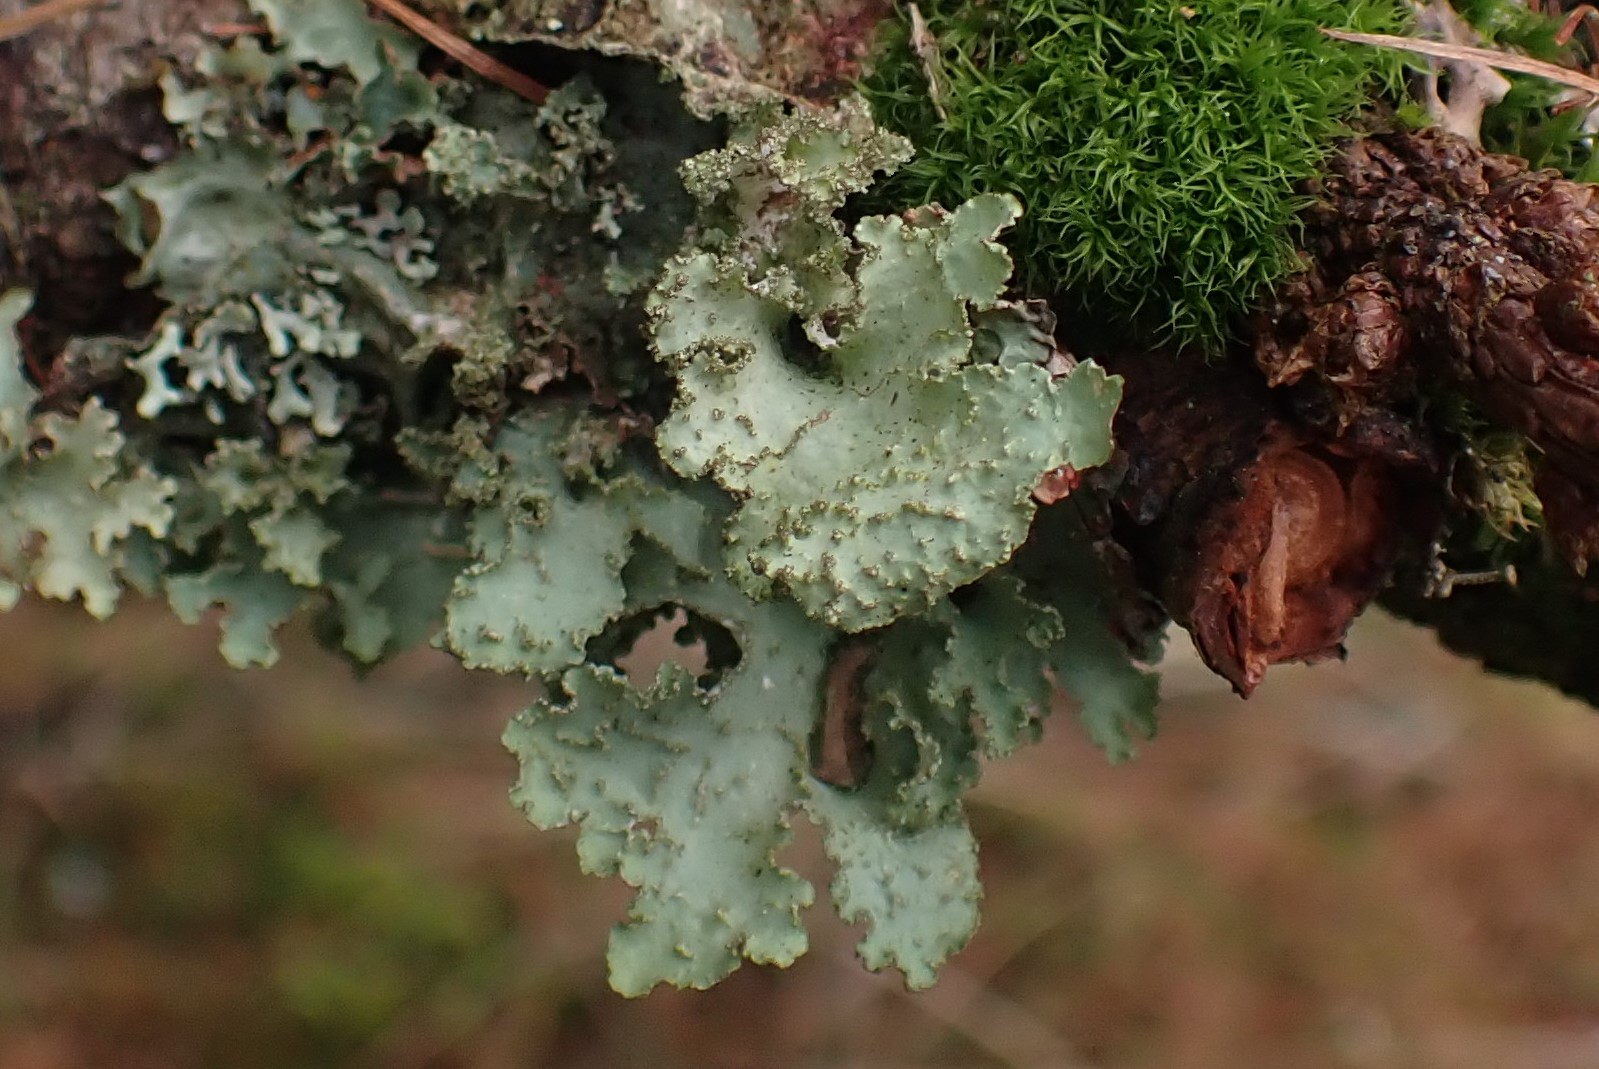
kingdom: Fungi
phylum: Ascomycota
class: Lecanoromycetes
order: Lecanorales
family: Parmeliaceae
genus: Platismatia
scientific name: Platismatia glauca
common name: blågrå papirlav
